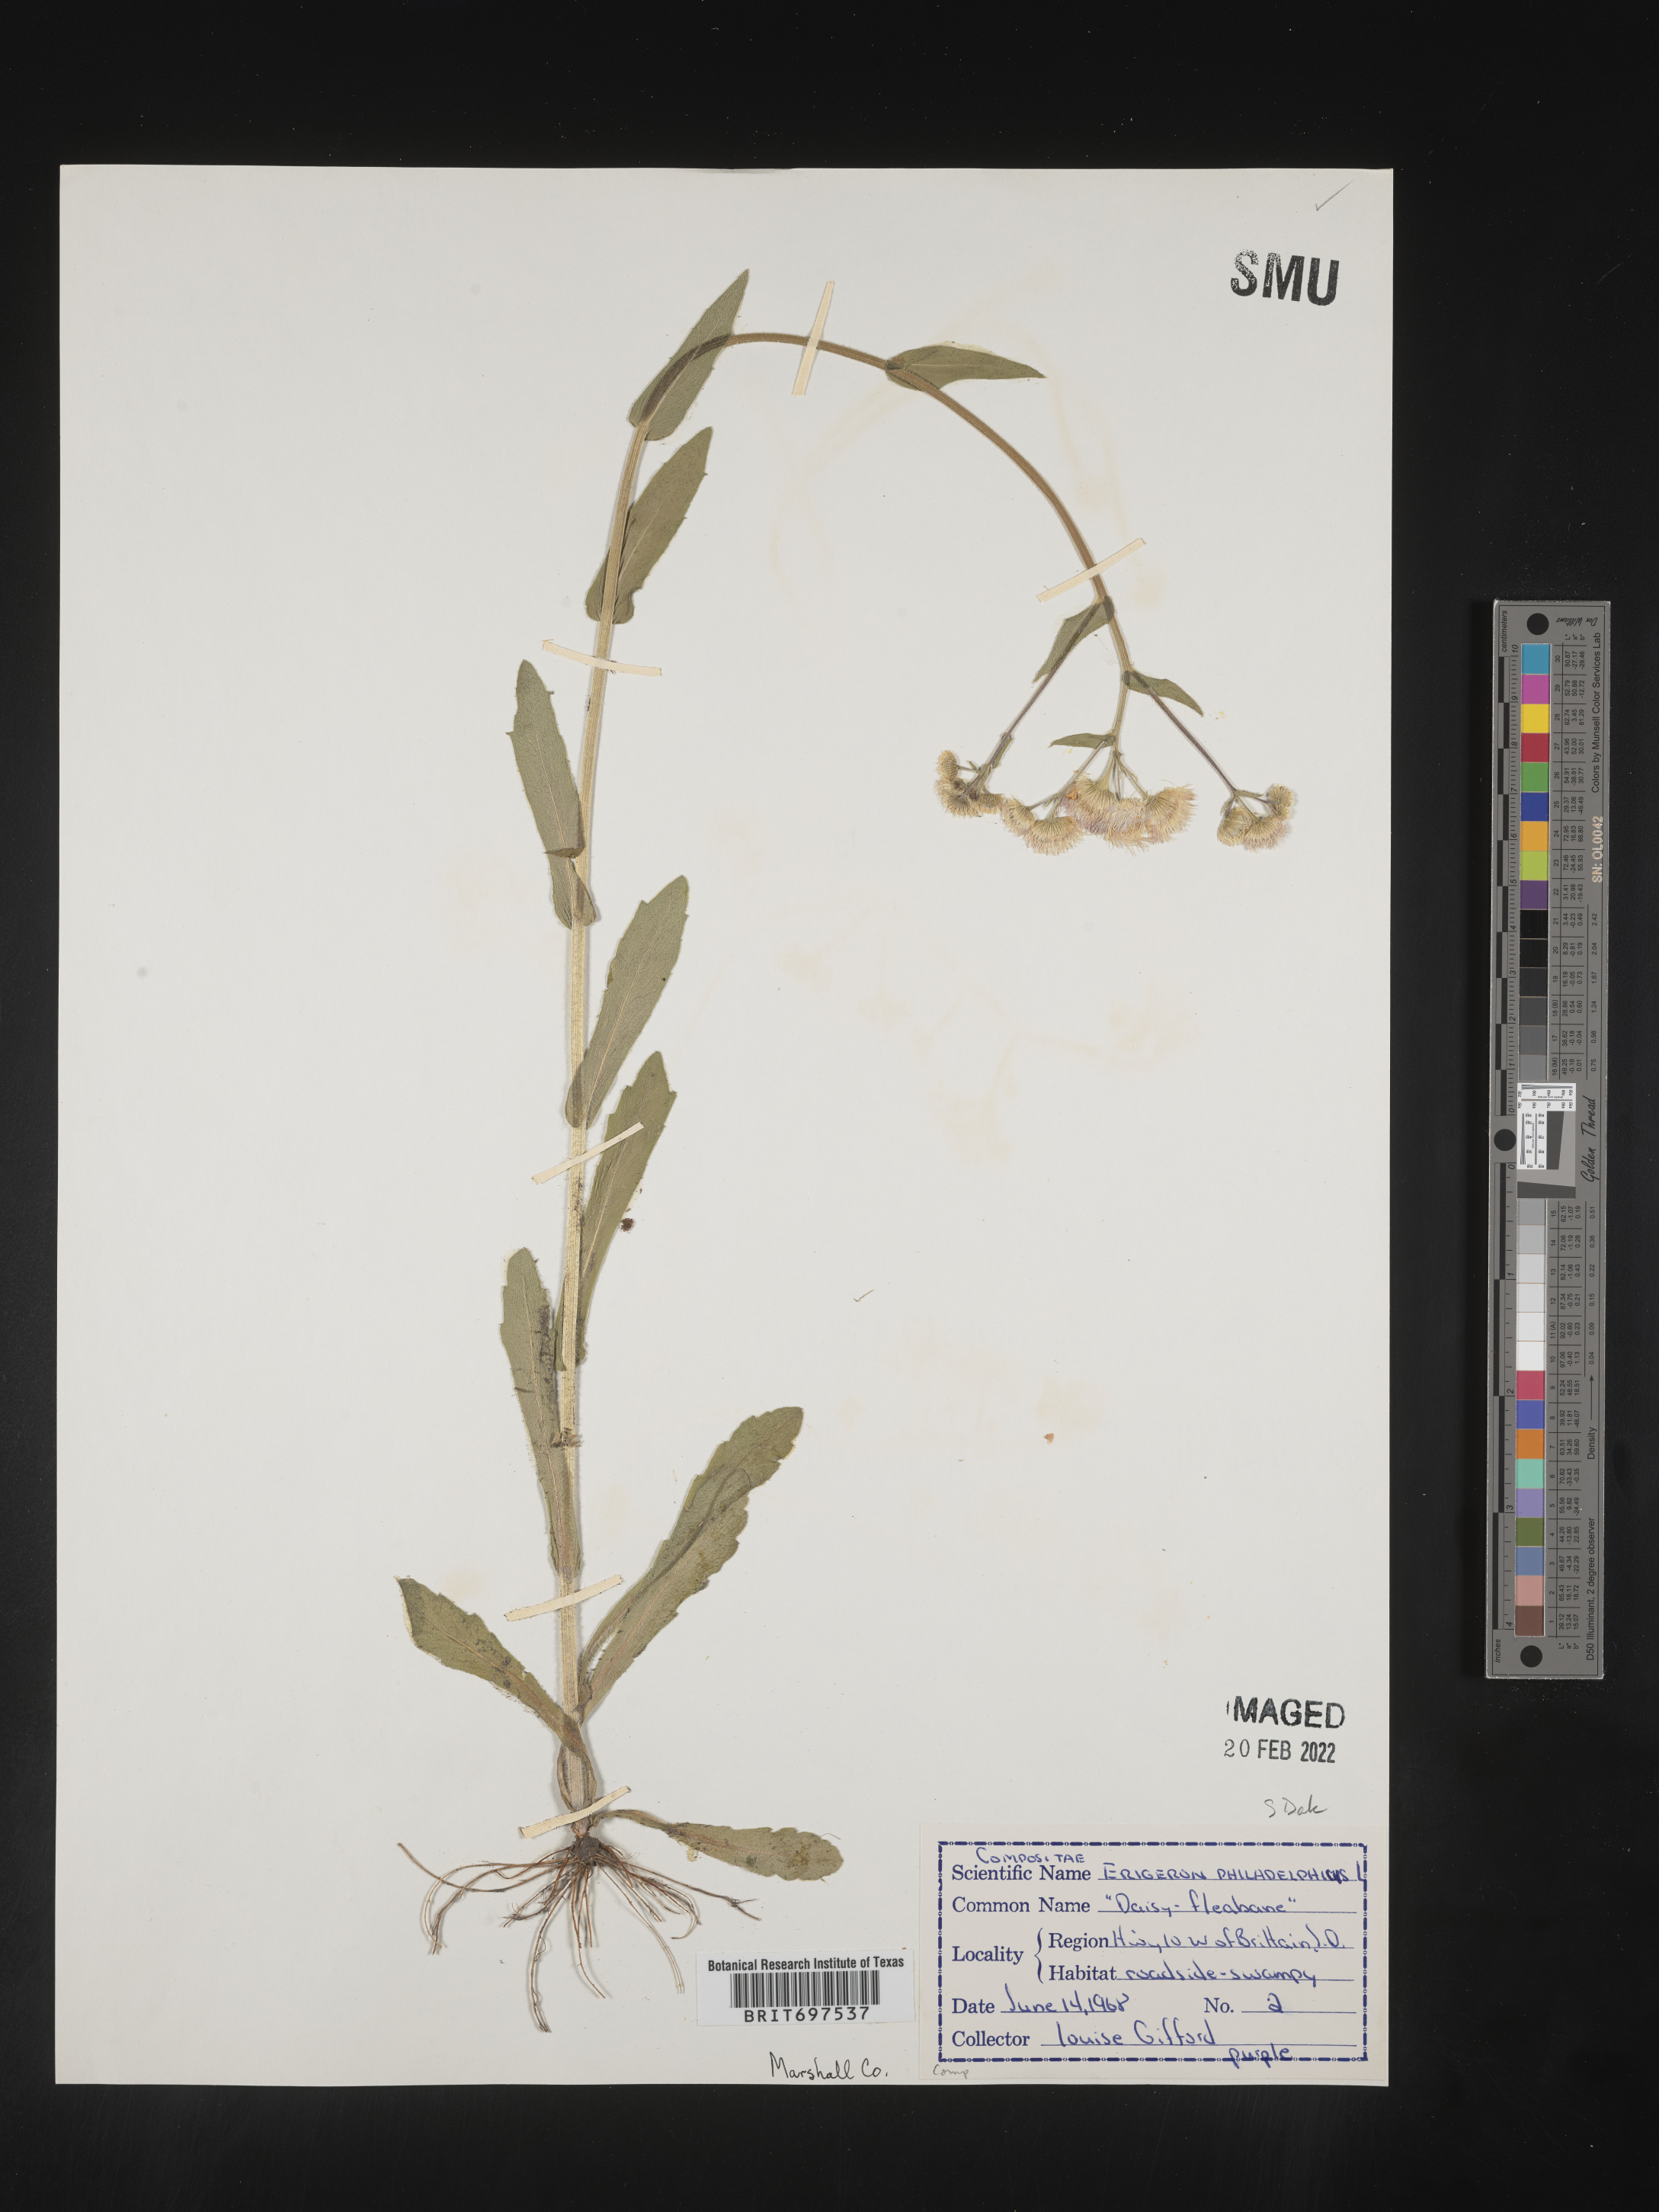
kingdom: Plantae
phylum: Tracheophyta
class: Magnoliopsida
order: Asterales
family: Asteraceae
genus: Erigeron
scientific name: Erigeron philadelphicus
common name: Robin's-plantain
